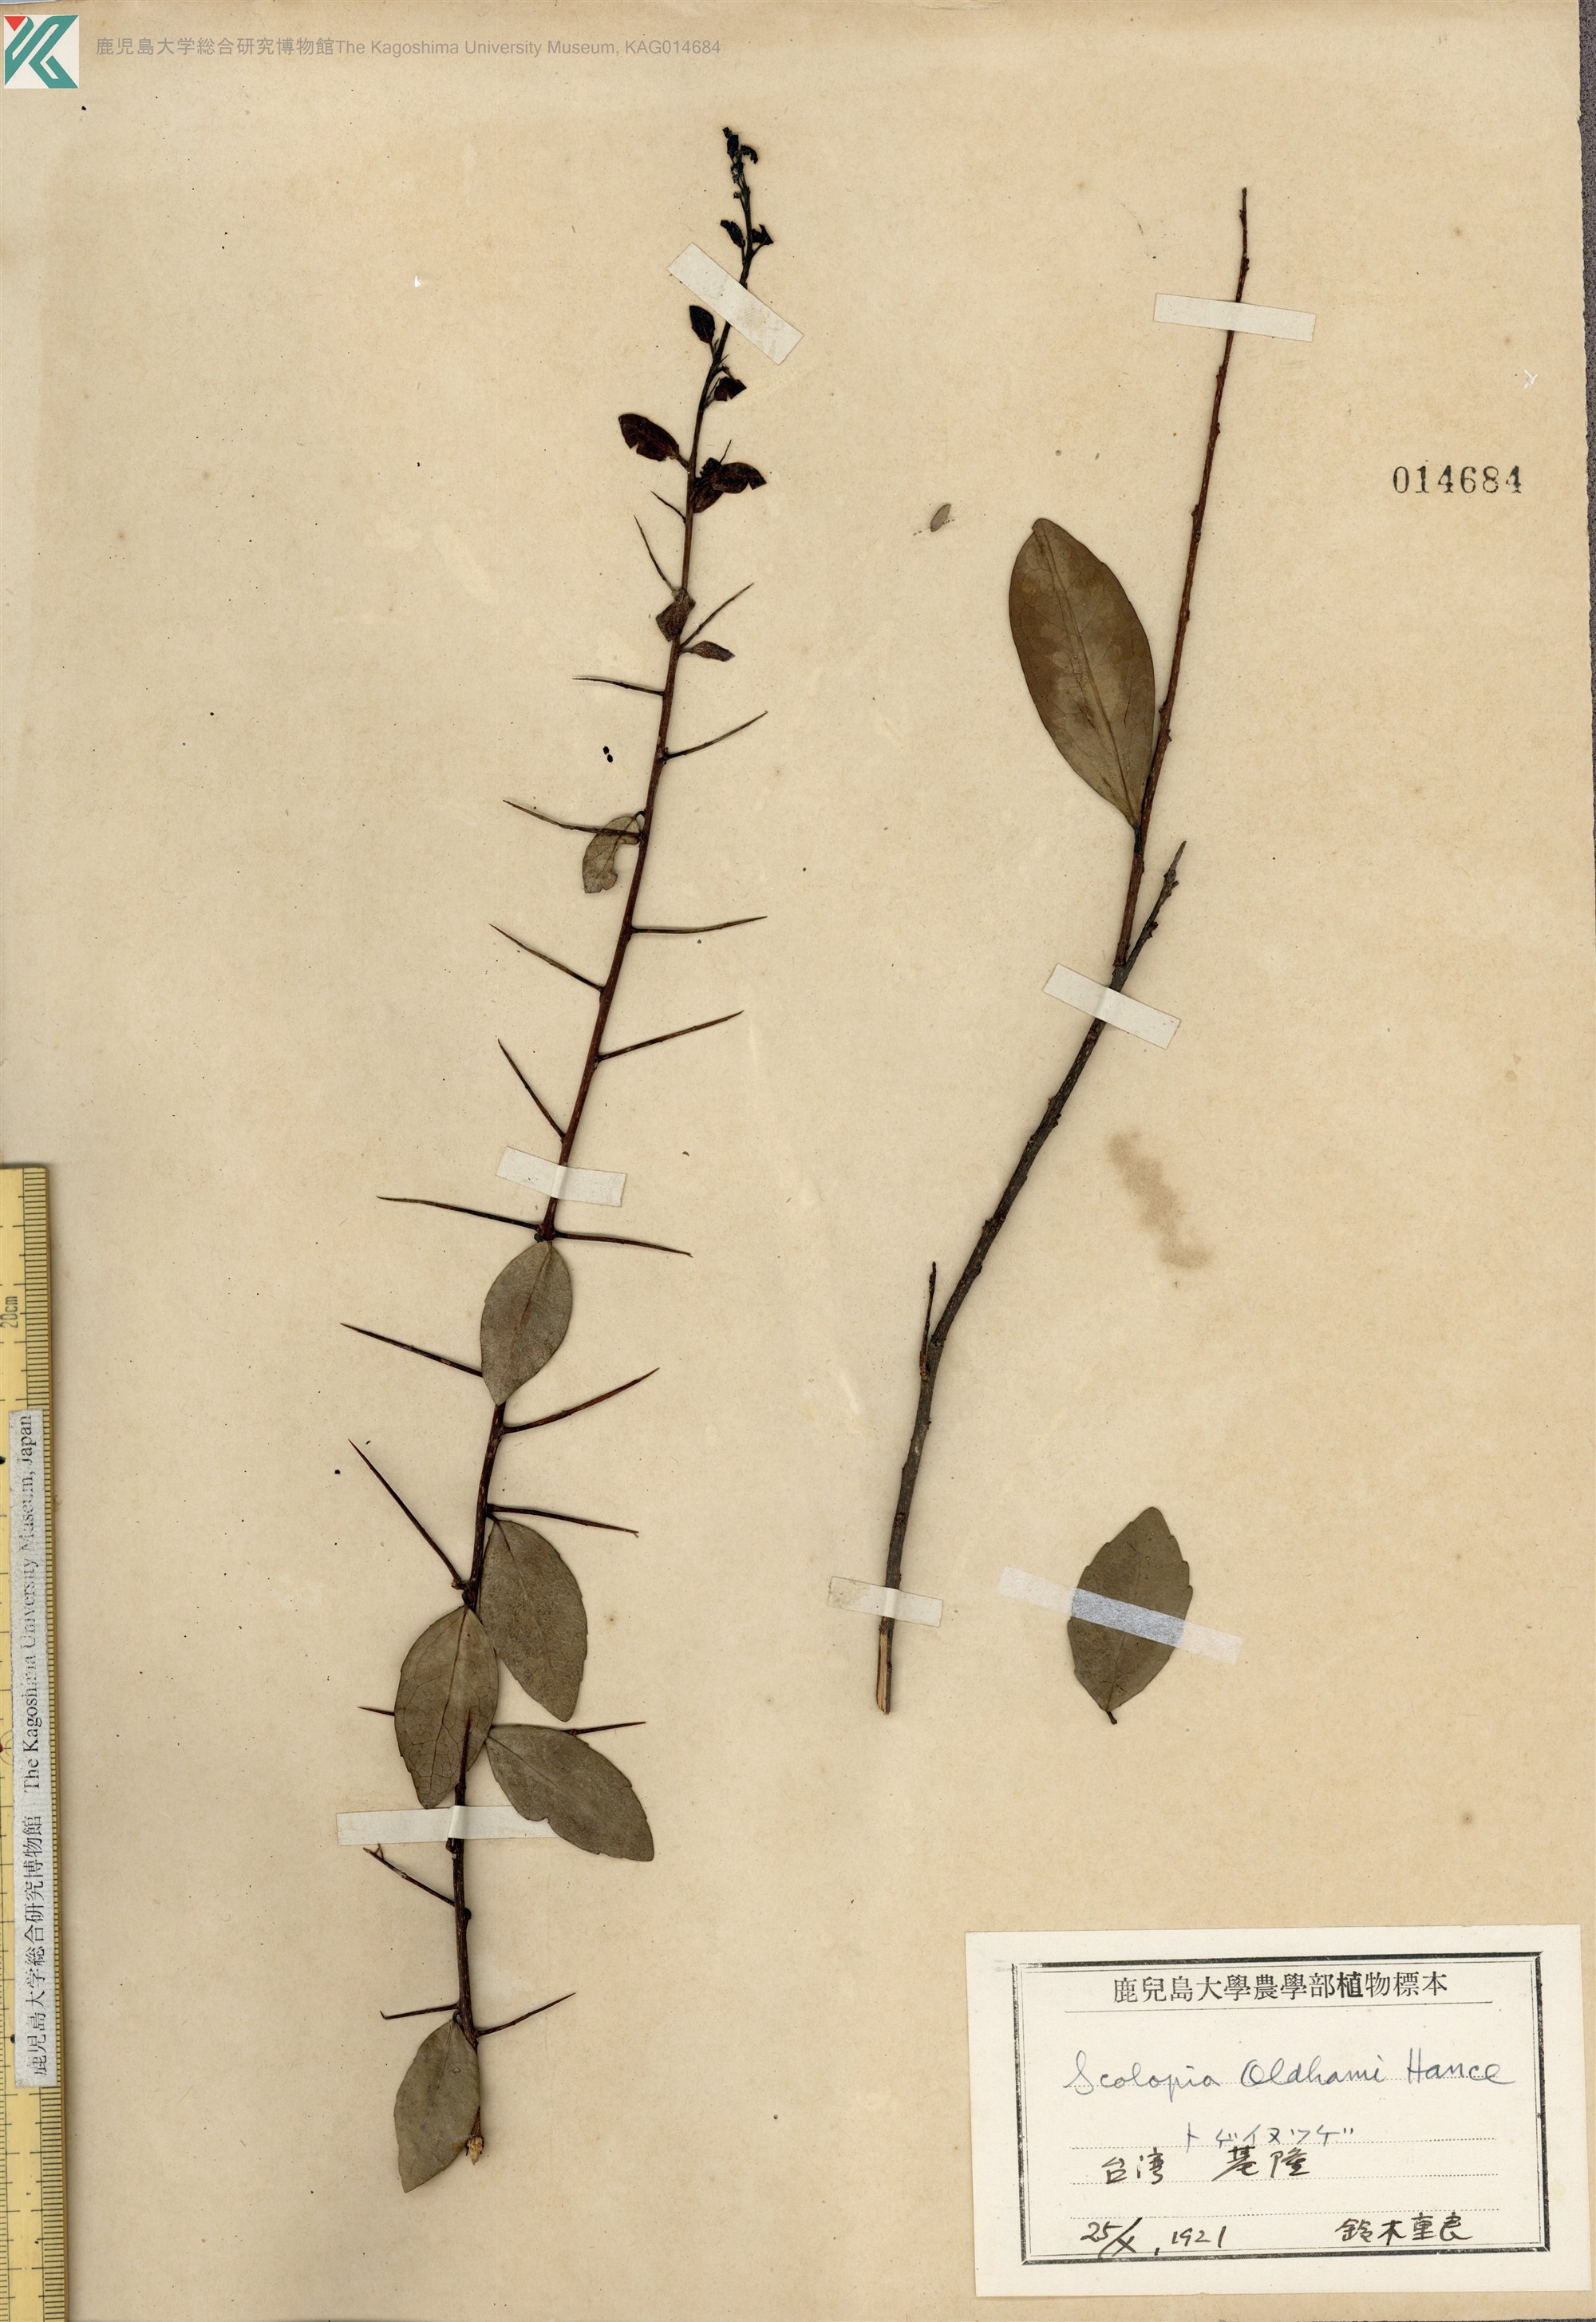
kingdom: Plantae
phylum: Tracheophyta
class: Magnoliopsida
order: Malpighiales
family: Salicaceae
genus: Scolopia
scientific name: Scolopia oldhamii
